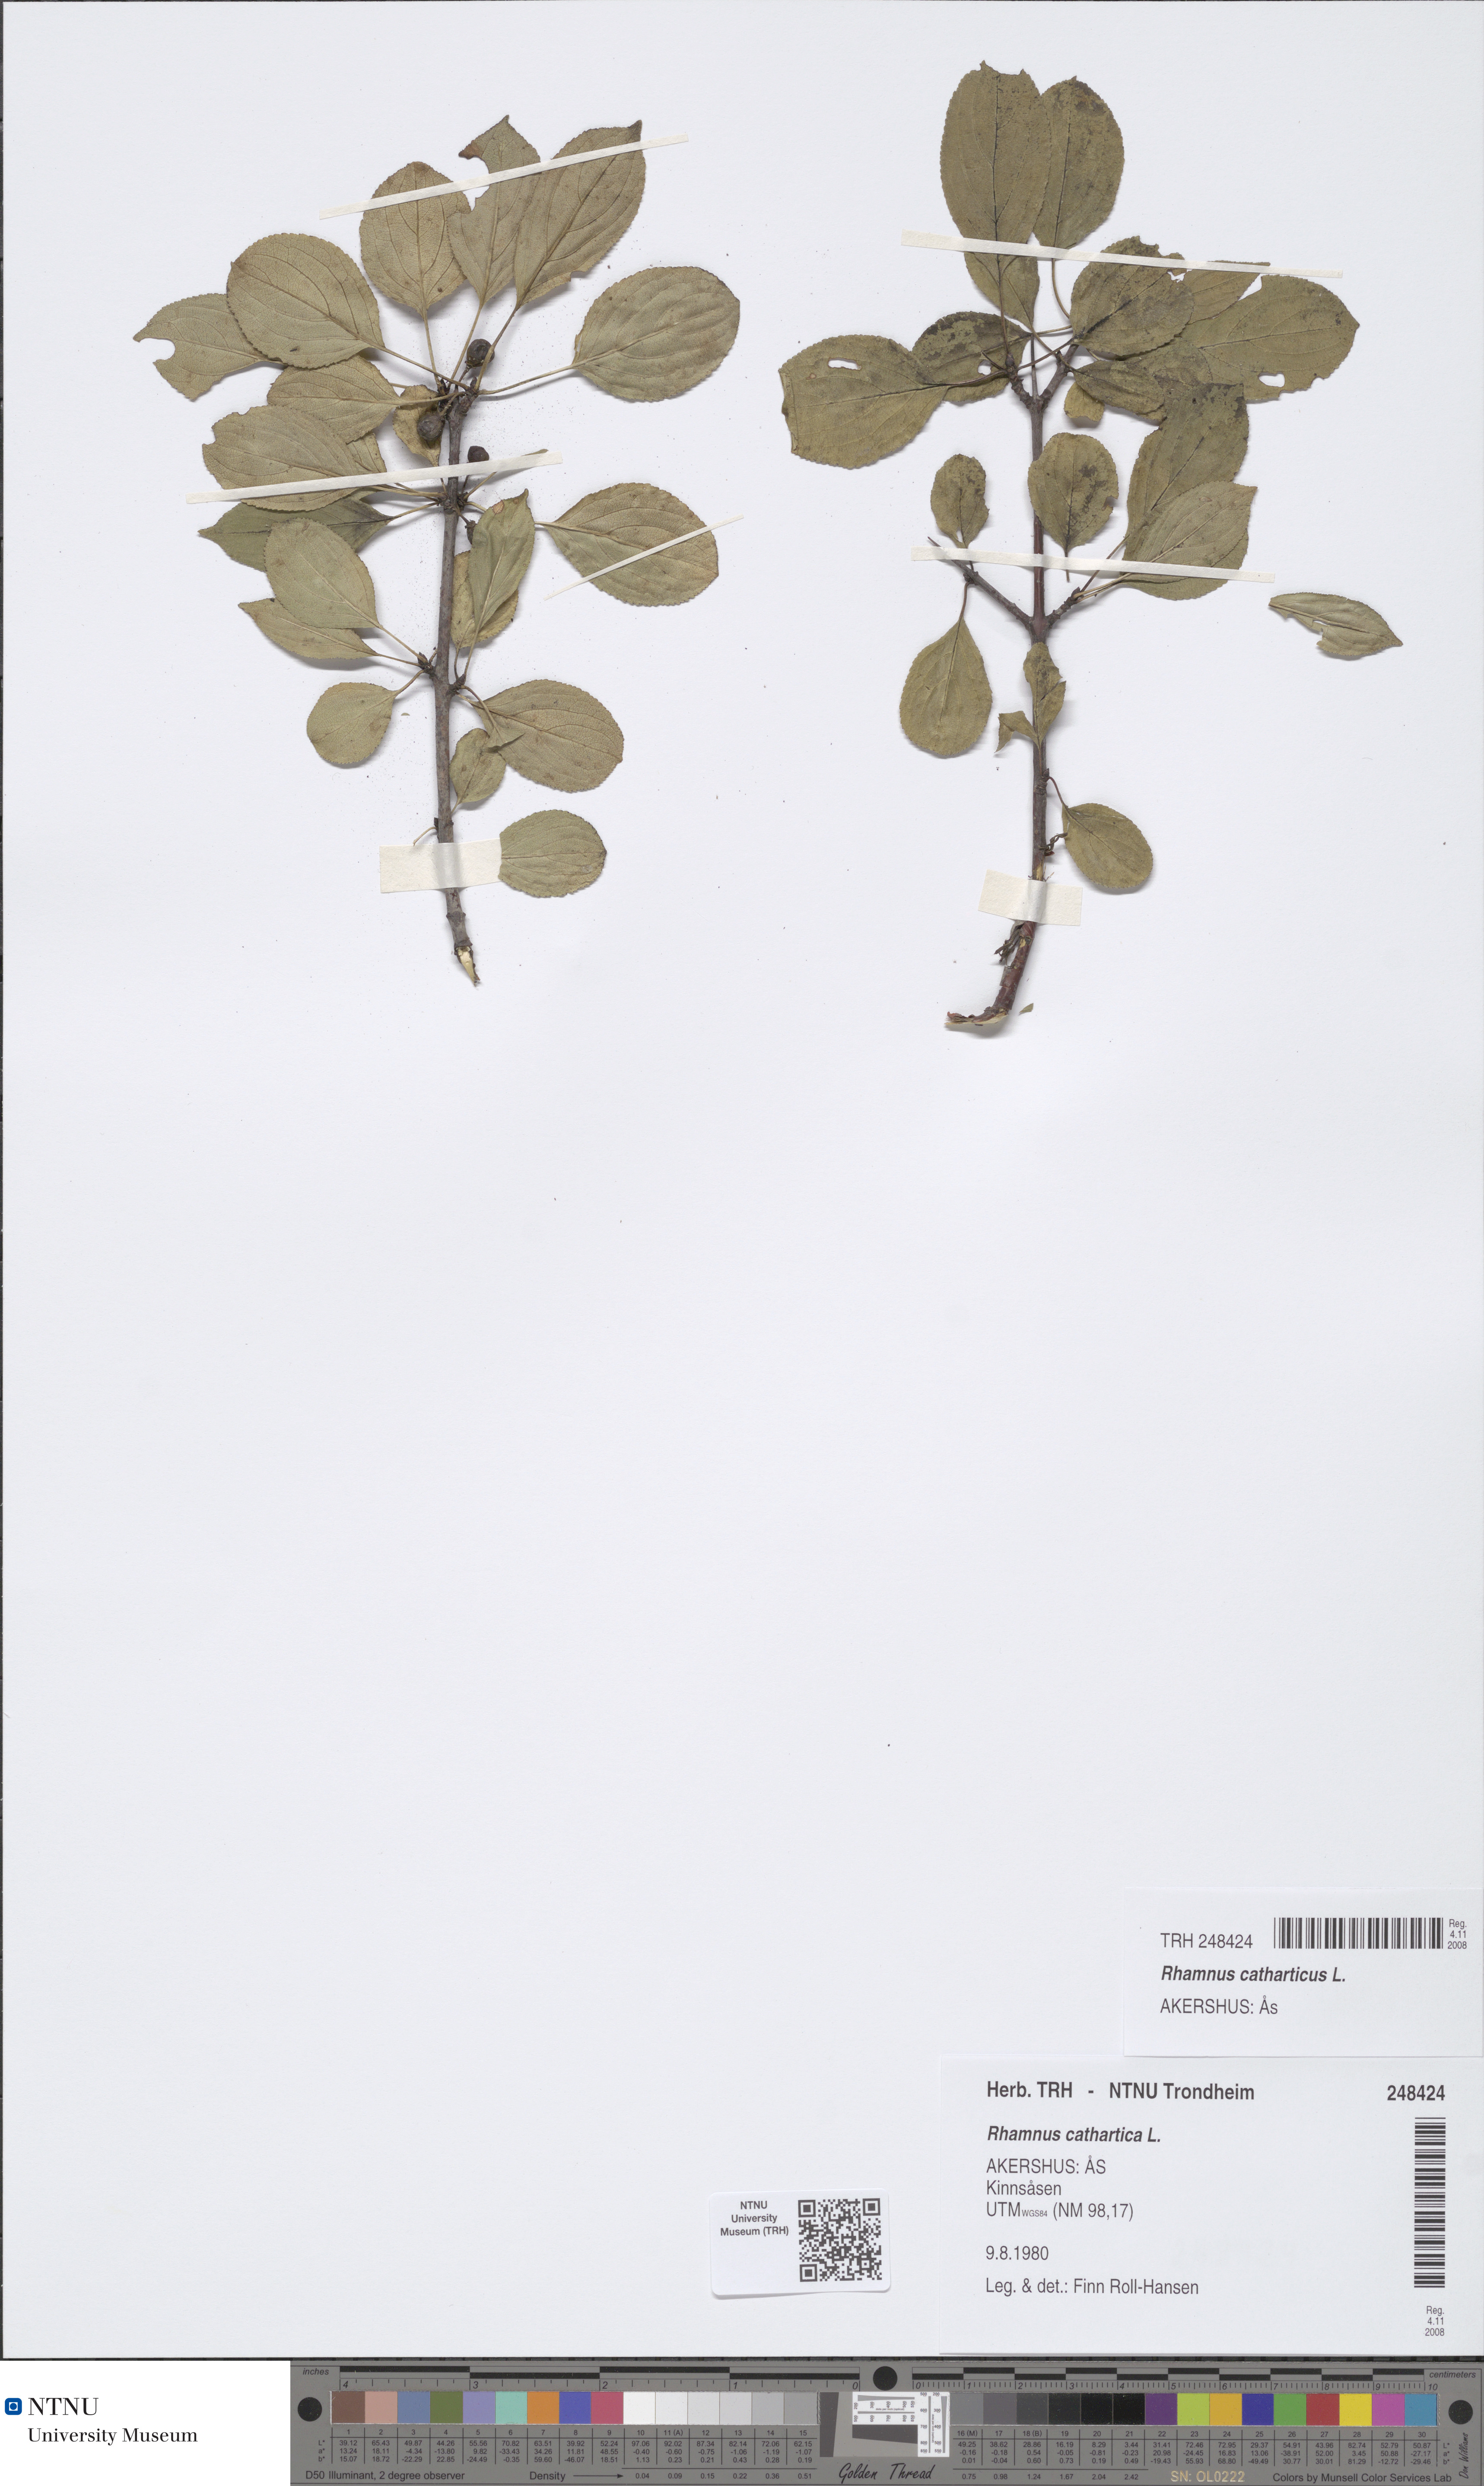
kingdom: Plantae
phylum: Tracheophyta
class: Magnoliopsida
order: Rosales
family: Rhamnaceae
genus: Rhamnus
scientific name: Rhamnus cathartica
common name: Common buckthorn
